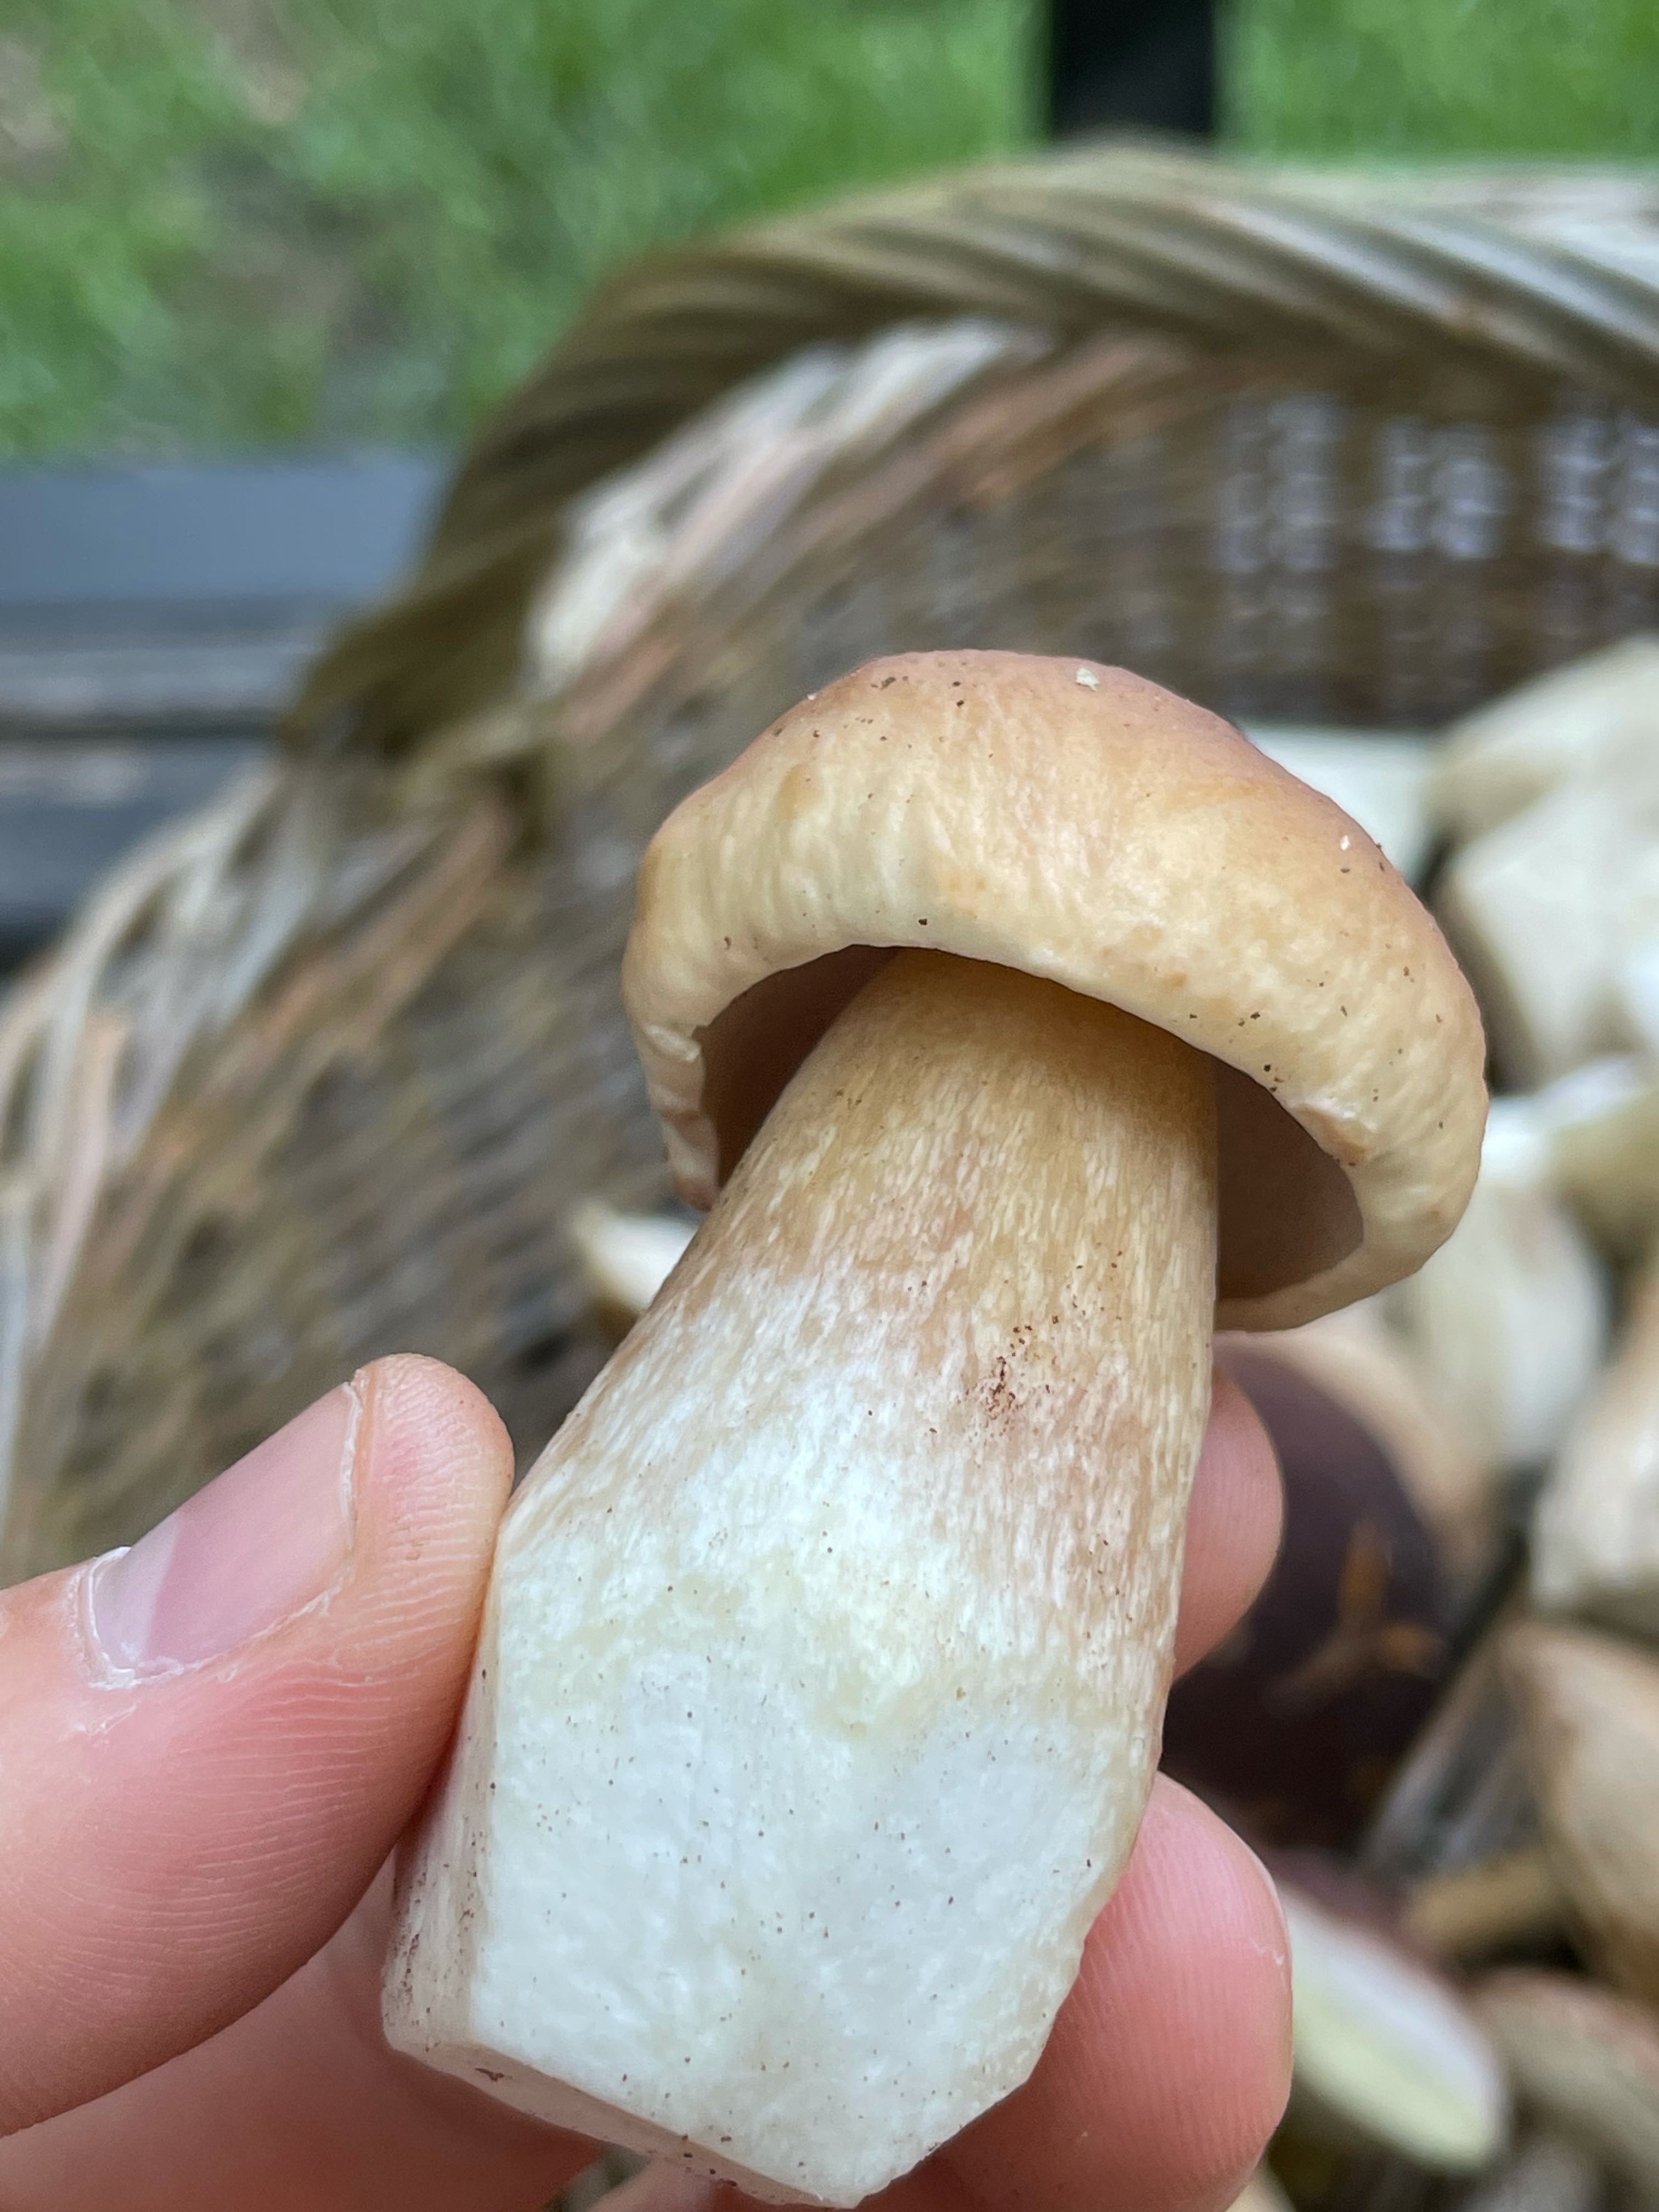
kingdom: Fungi
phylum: Basidiomycota
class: Agaricomycetes
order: Boletales
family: Boletaceae
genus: Boletus
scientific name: Boletus edulis
